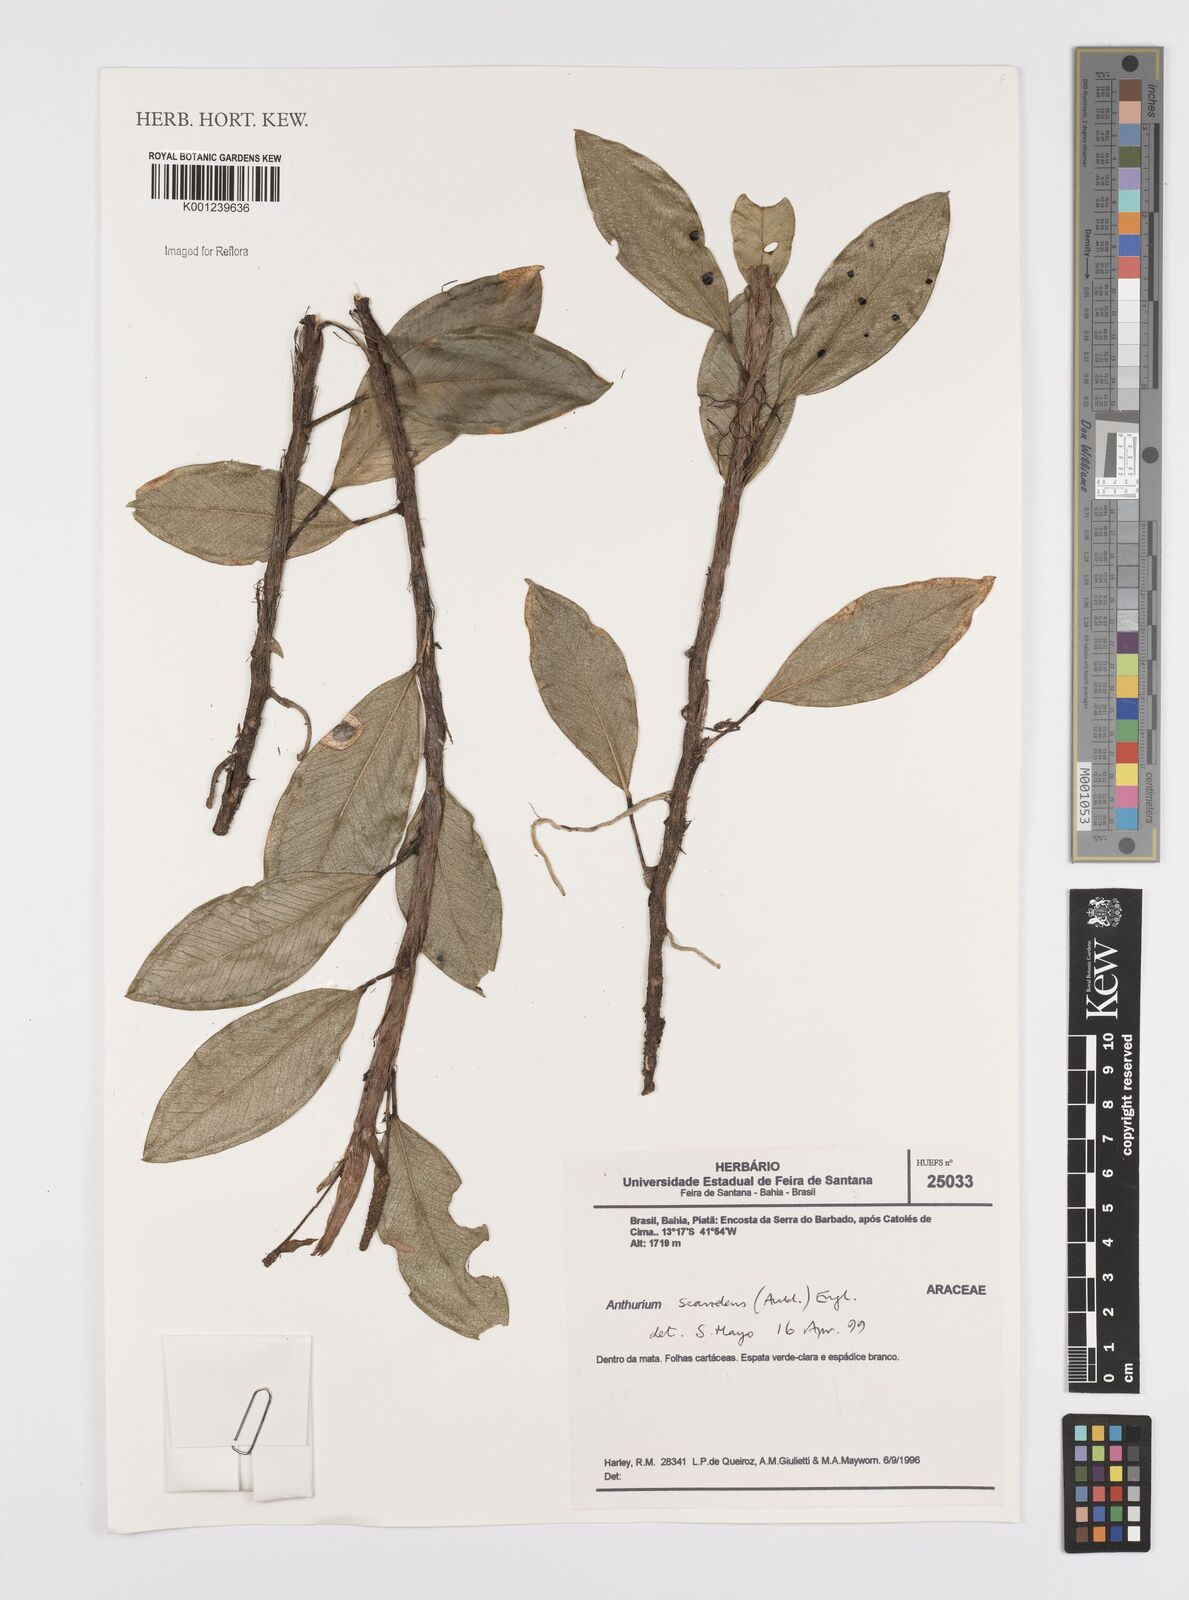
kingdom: Plantae
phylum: Tracheophyta
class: Liliopsida
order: Alismatales
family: Araceae
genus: Anthurium
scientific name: Anthurium scandens
